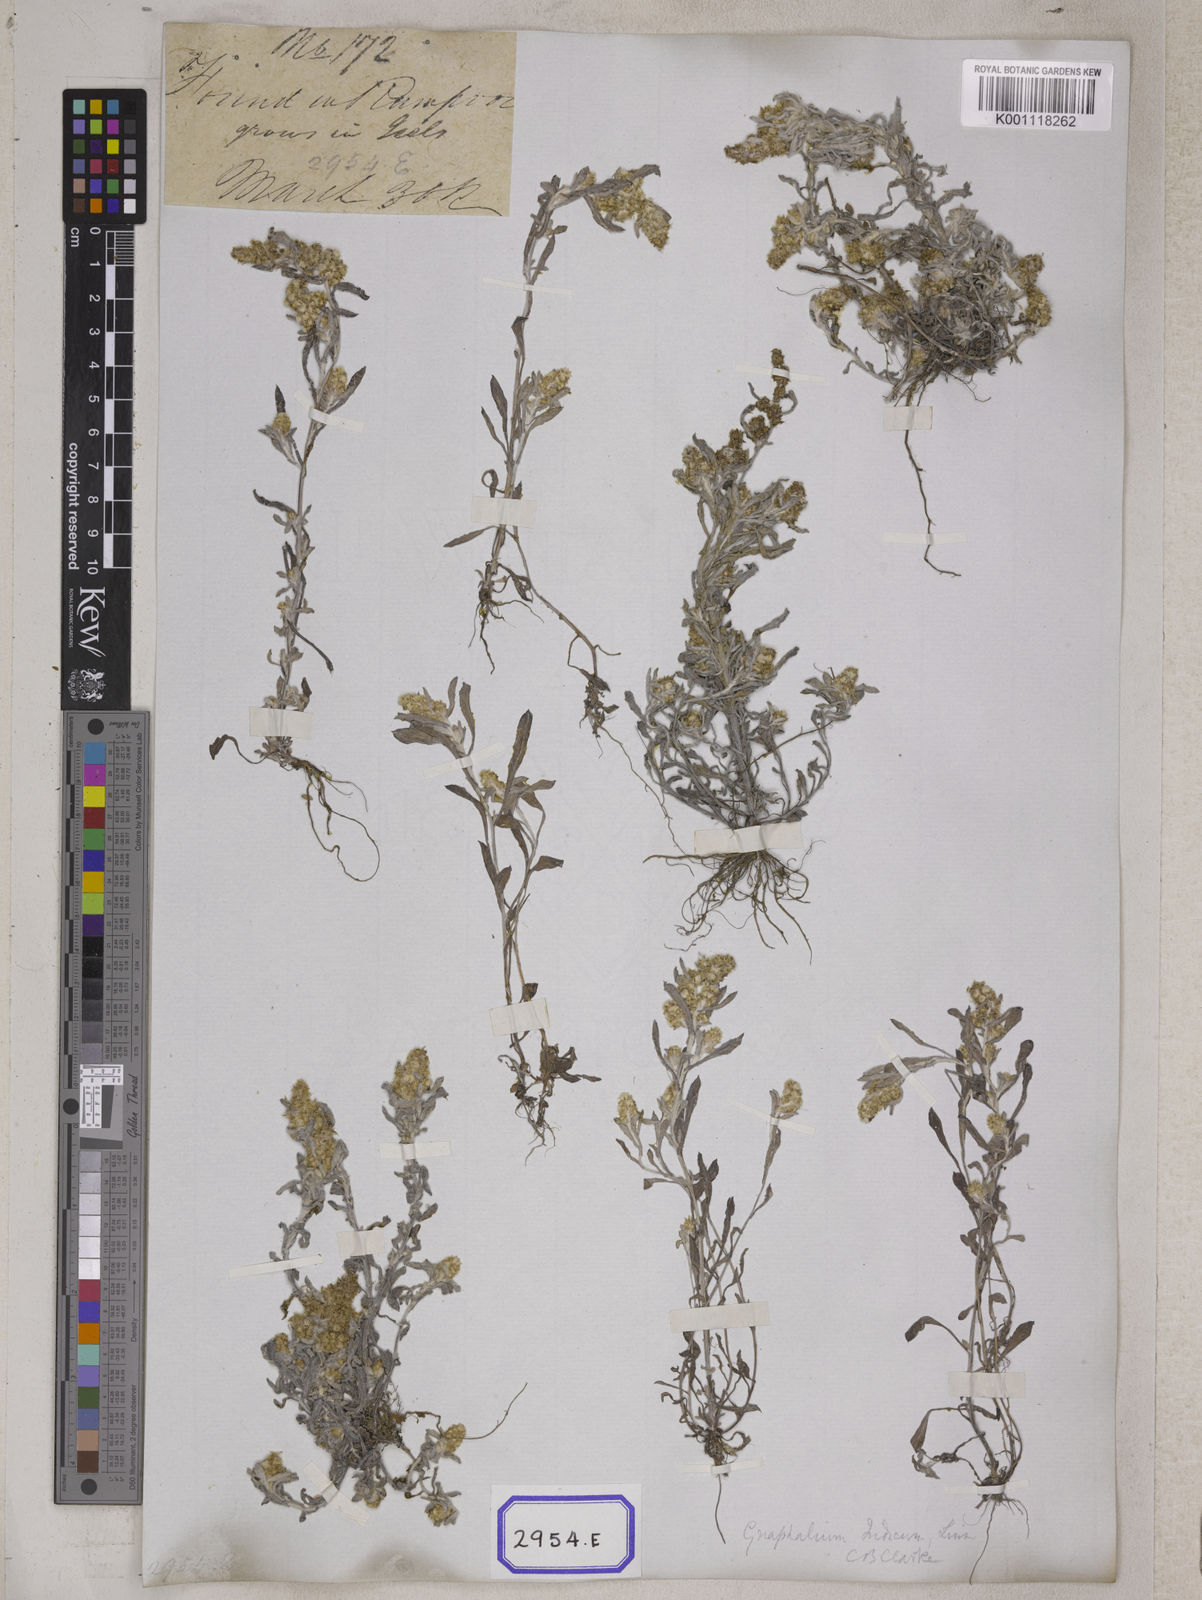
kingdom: Plantae
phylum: Tracheophyta
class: Magnoliopsida
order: Asterales
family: Asteraceae
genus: Helichrysum
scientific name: Helichrysum indicum
